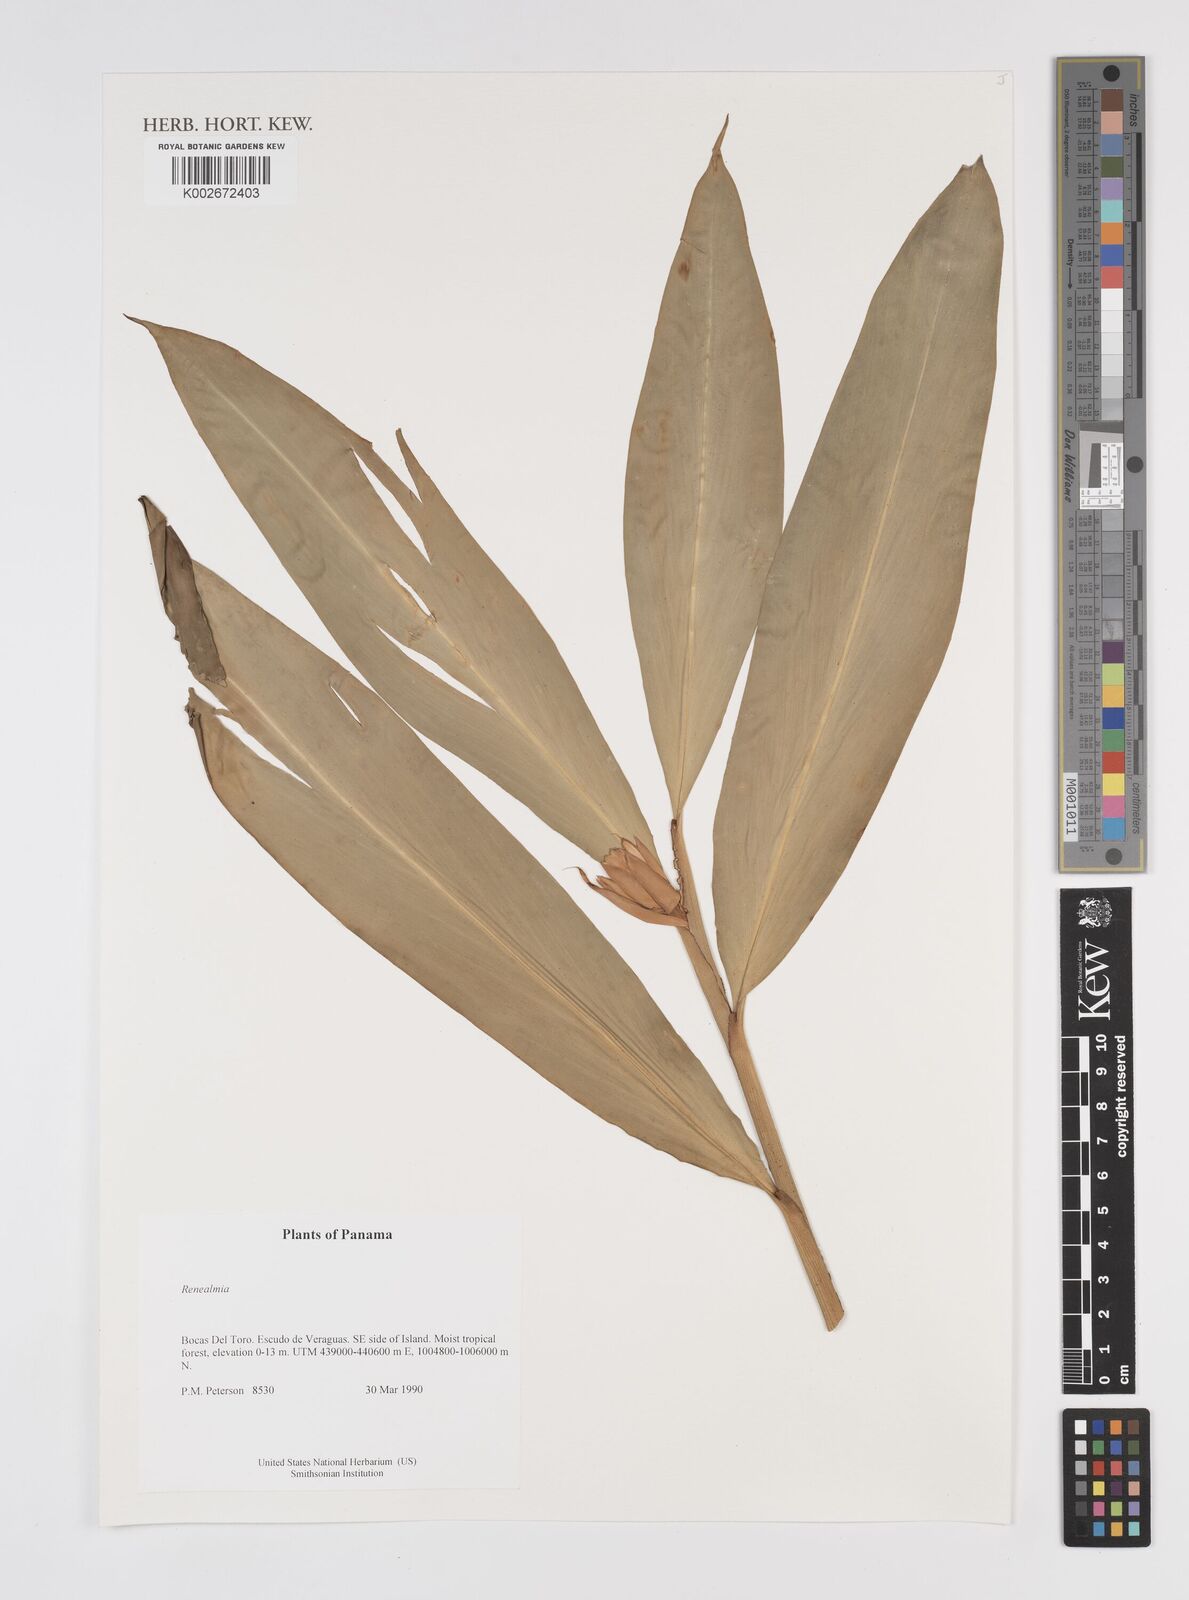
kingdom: Plantae
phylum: Tracheophyta
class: Liliopsida
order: Zingiberales
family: Zingiberaceae
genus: Renealmia
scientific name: Renealmia
